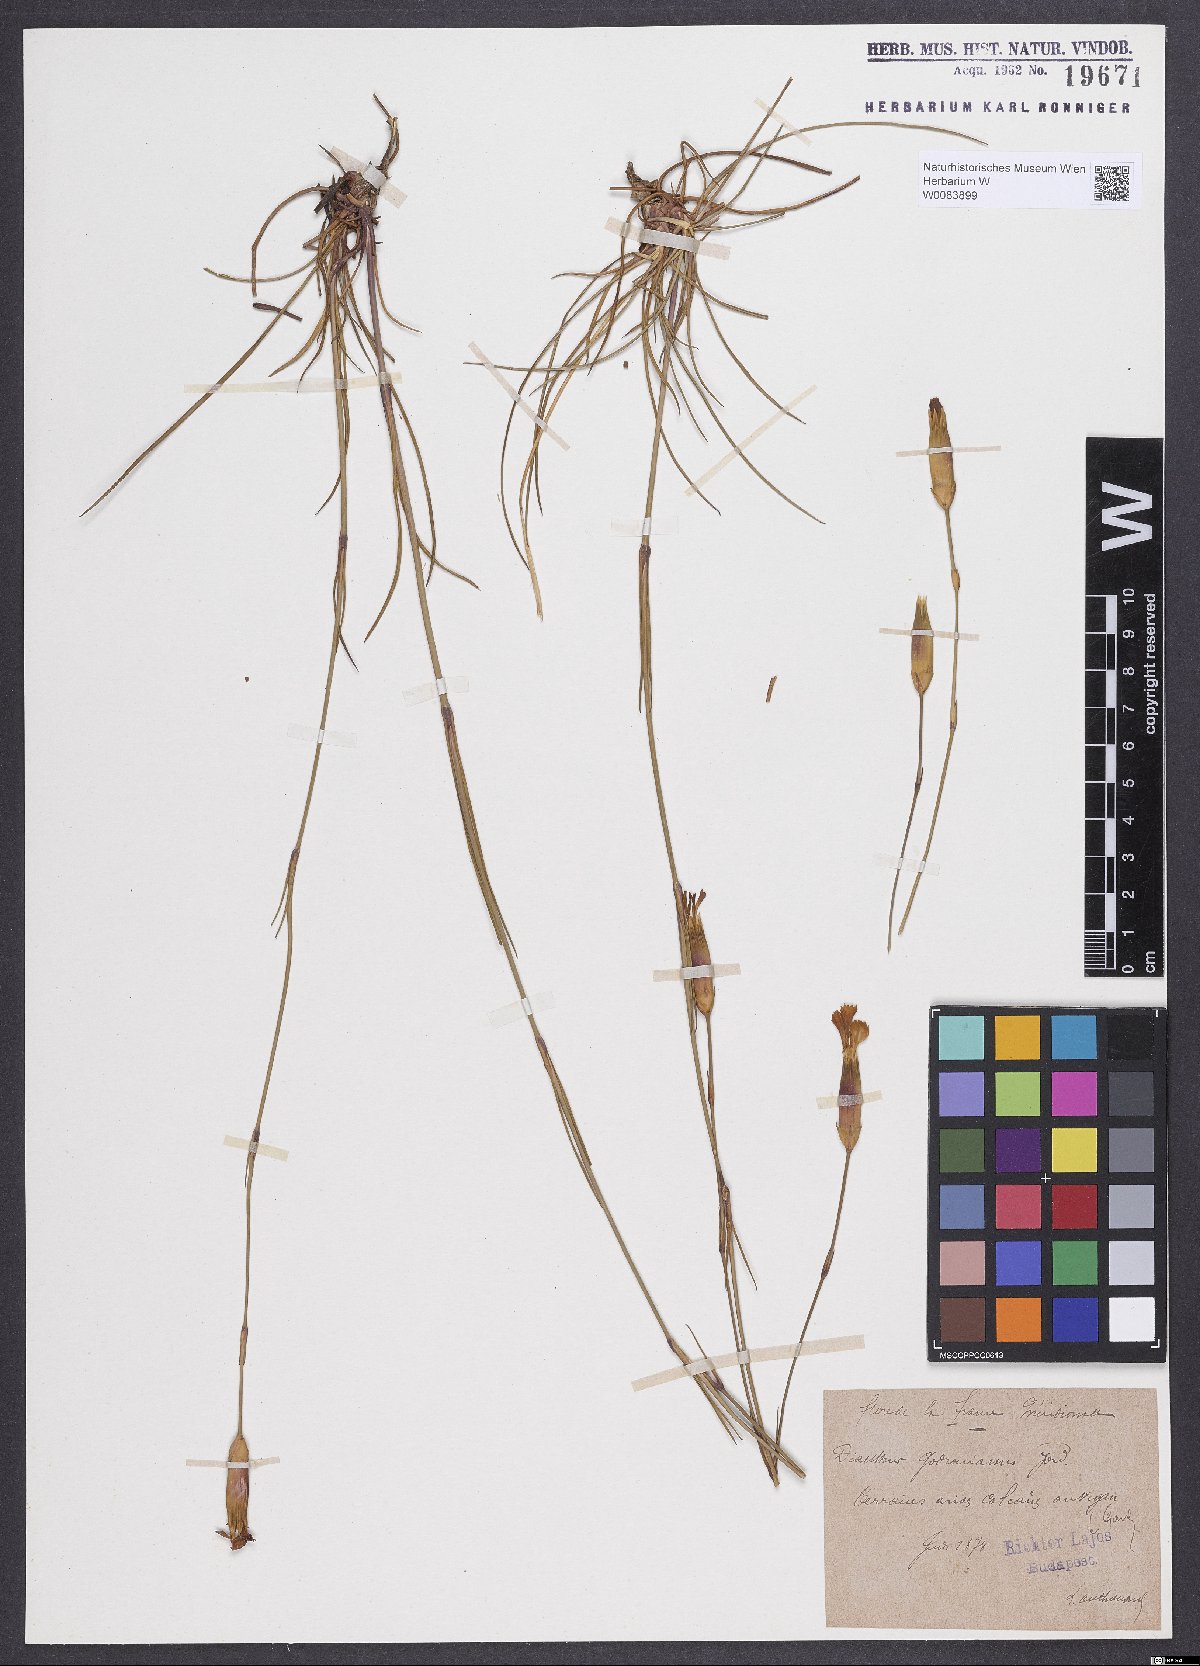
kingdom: Plantae
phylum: Tracheophyta
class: Magnoliopsida
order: Caryophyllales
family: Caryophyllaceae
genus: Dianthus
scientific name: Dianthus virgineus
